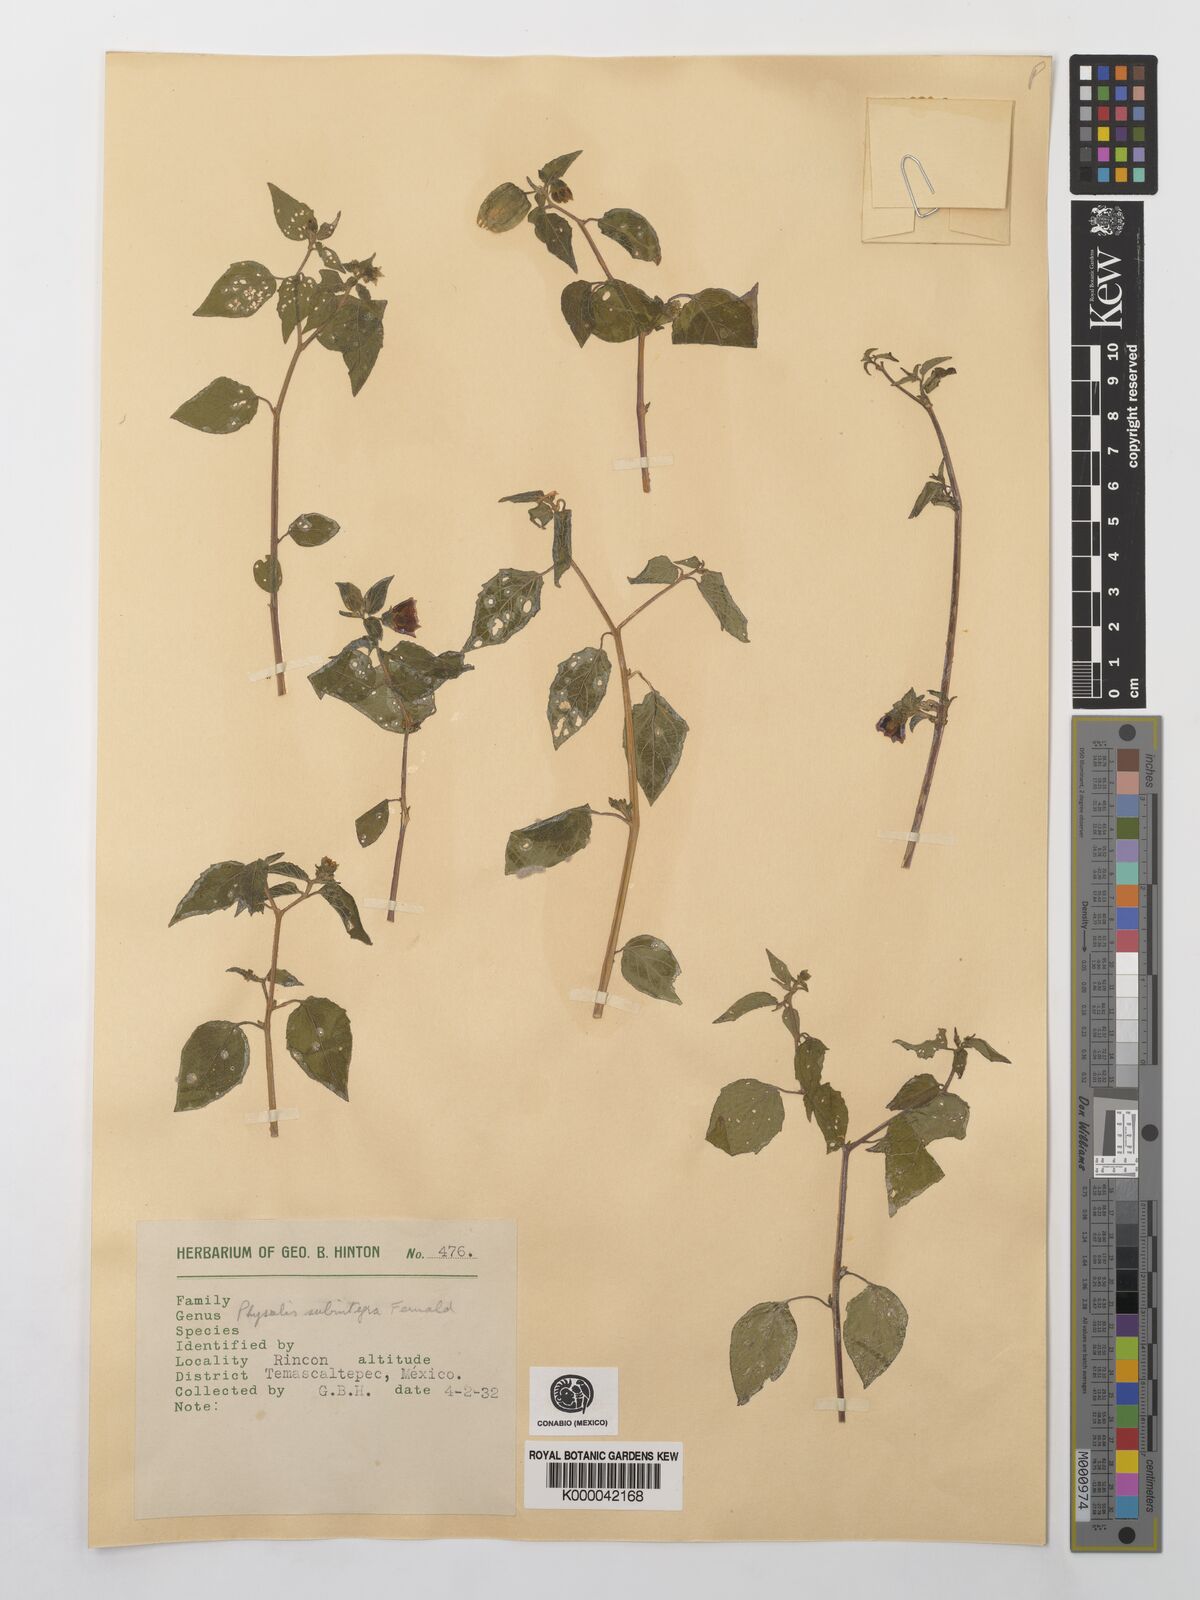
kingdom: Plantae
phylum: Tracheophyta
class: Magnoliopsida
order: Solanales
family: Solanaceae
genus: Physalis
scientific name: Physalis orizabae
